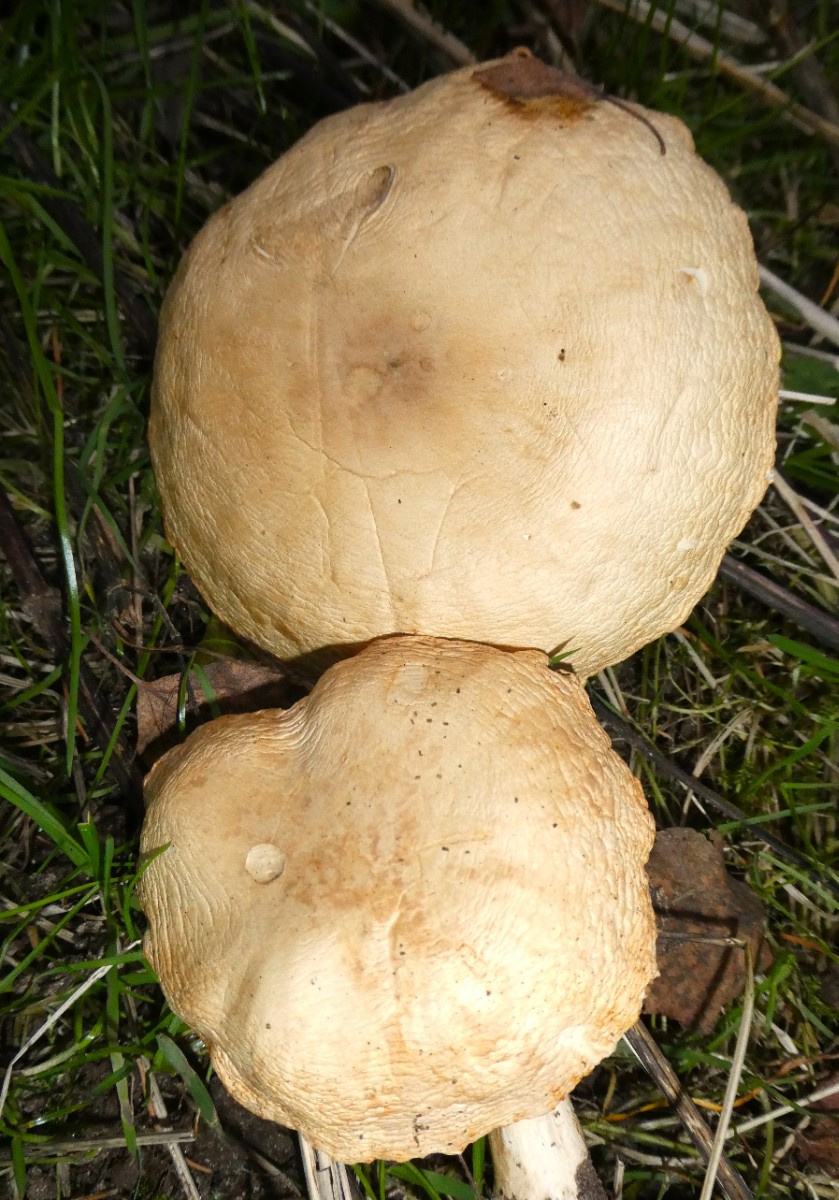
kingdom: Fungi
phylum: Basidiomycota
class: Agaricomycetes
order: Agaricales
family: Tricholomataceae
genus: Melanoleuca
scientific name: Melanoleuca
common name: munkehat
